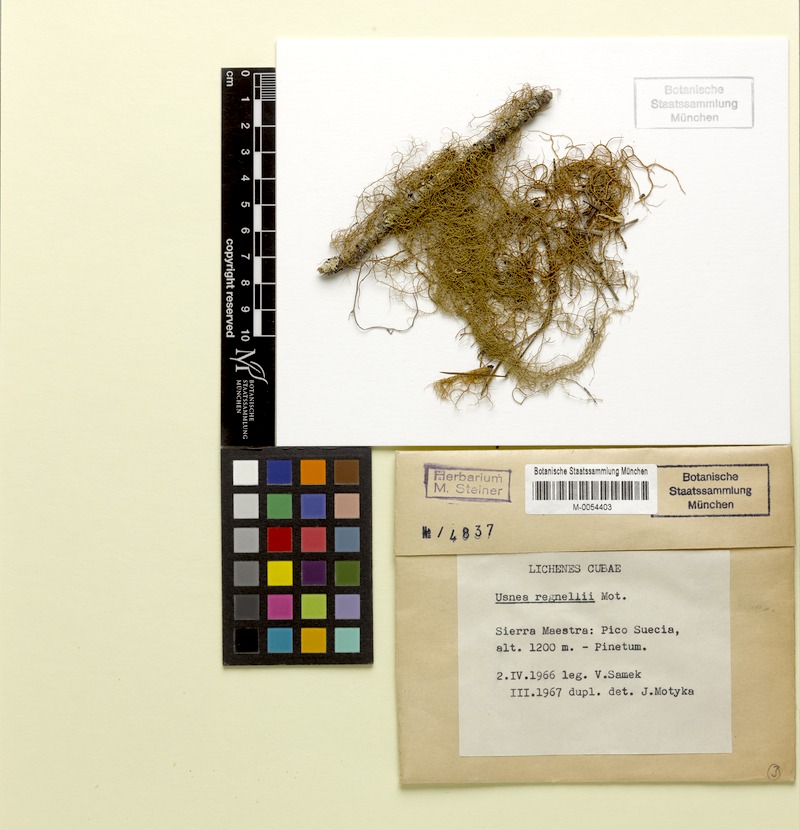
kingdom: Fungi
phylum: Ascomycota
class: Lecanoromycetes
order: Lecanorales
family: Parmeliaceae
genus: Usnea
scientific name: Usnea
